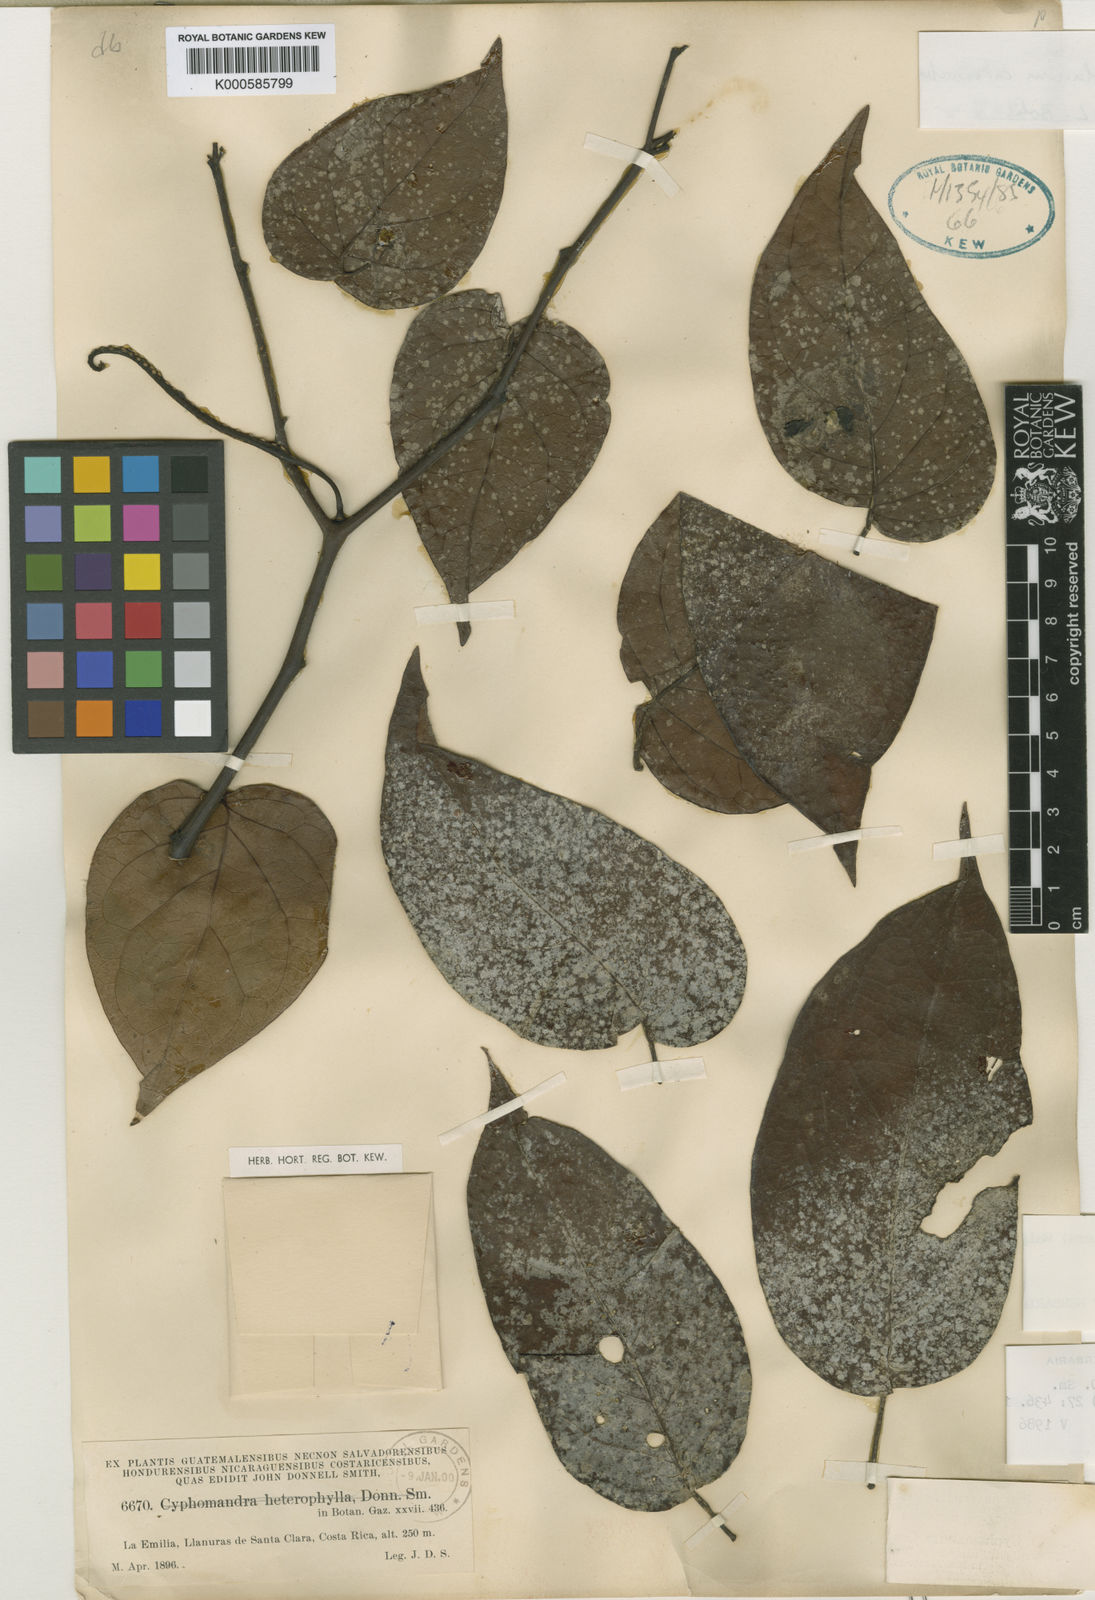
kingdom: Plantae
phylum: Tracheophyta
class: Magnoliopsida
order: Solanales
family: Solanaceae
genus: Solanum
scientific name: Solanum splendens
